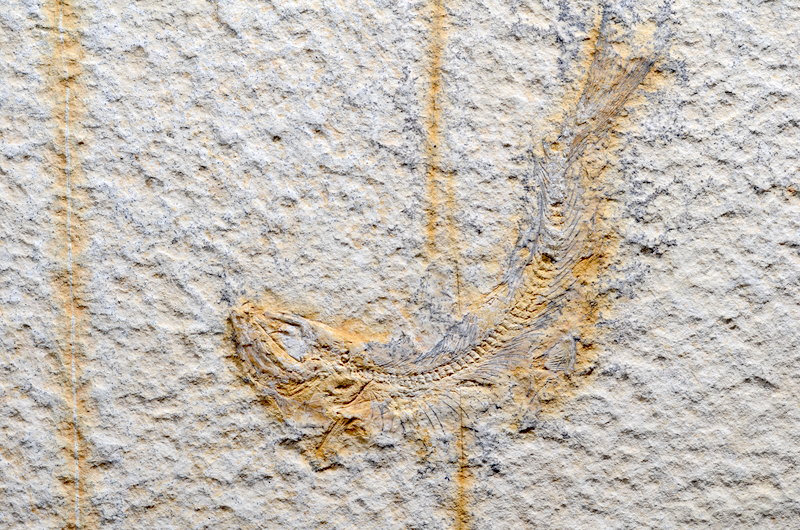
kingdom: Animalia
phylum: Chordata
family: Ascalaboidae
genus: Tharsis
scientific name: Tharsis dubius
